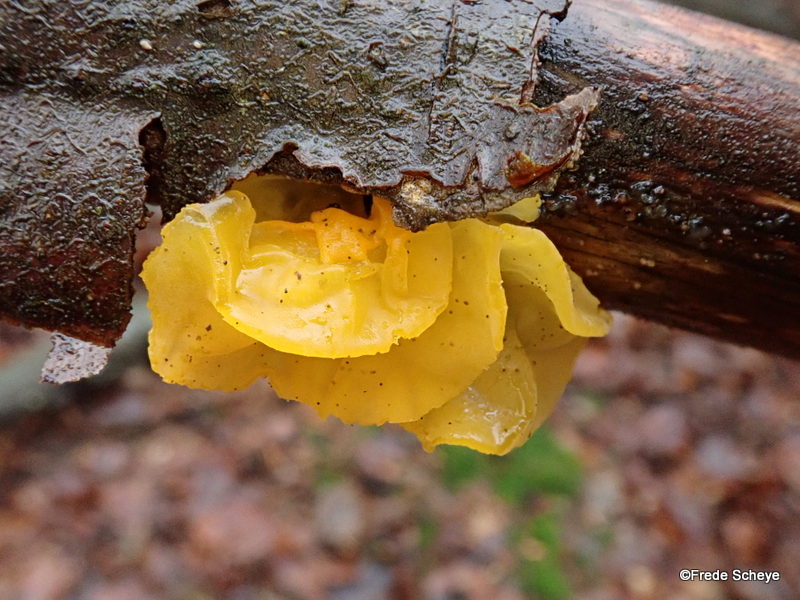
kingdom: Fungi
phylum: Basidiomycota
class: Tremellomycetes
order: Tremellales
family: Tremellaceae
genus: Tremella
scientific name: Tremella mesenterica
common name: gul bævresvamp
